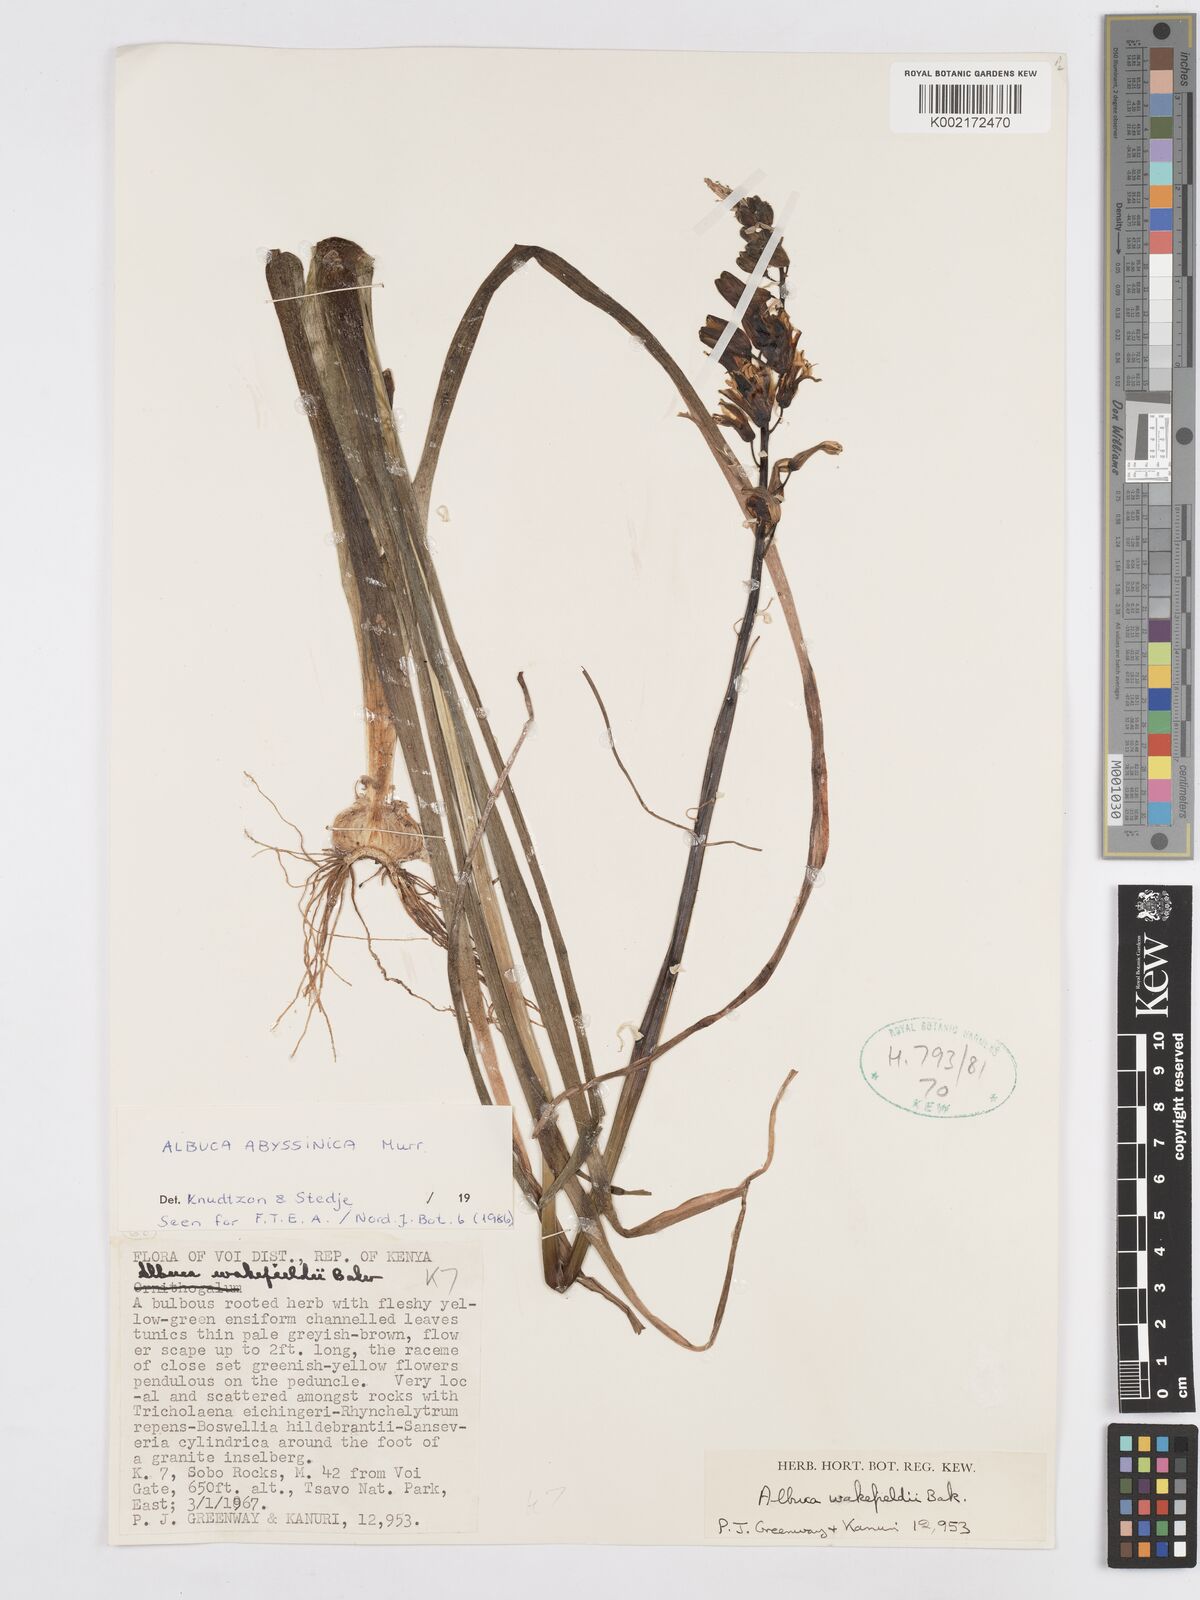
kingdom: Plantae
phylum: Tracheophyta
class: Liliopsida
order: Asparagales
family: Asparagaceae
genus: Albuca
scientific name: Albuca abyssinica
